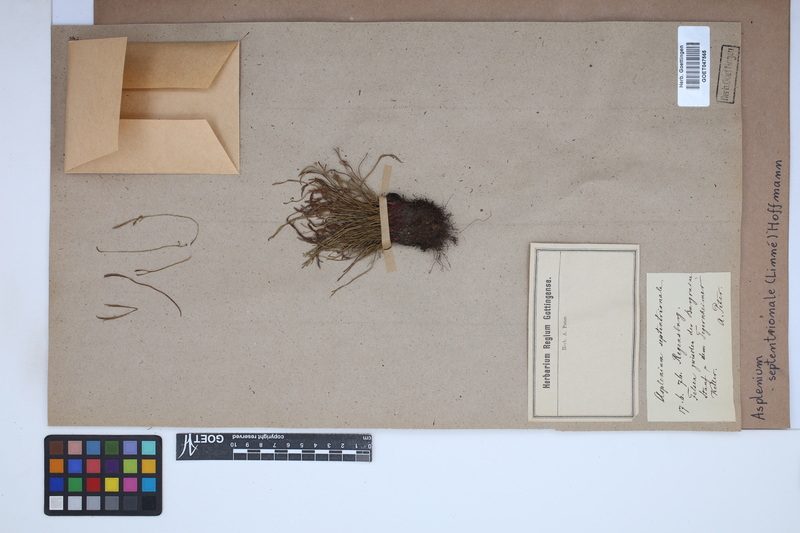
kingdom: Plantae
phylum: Tracheophyta
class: Polypodiopsida
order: Polypodiales
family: Aspleniaceae
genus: Asplenium
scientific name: Asplenium septentrionale
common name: Forked spleenwort
